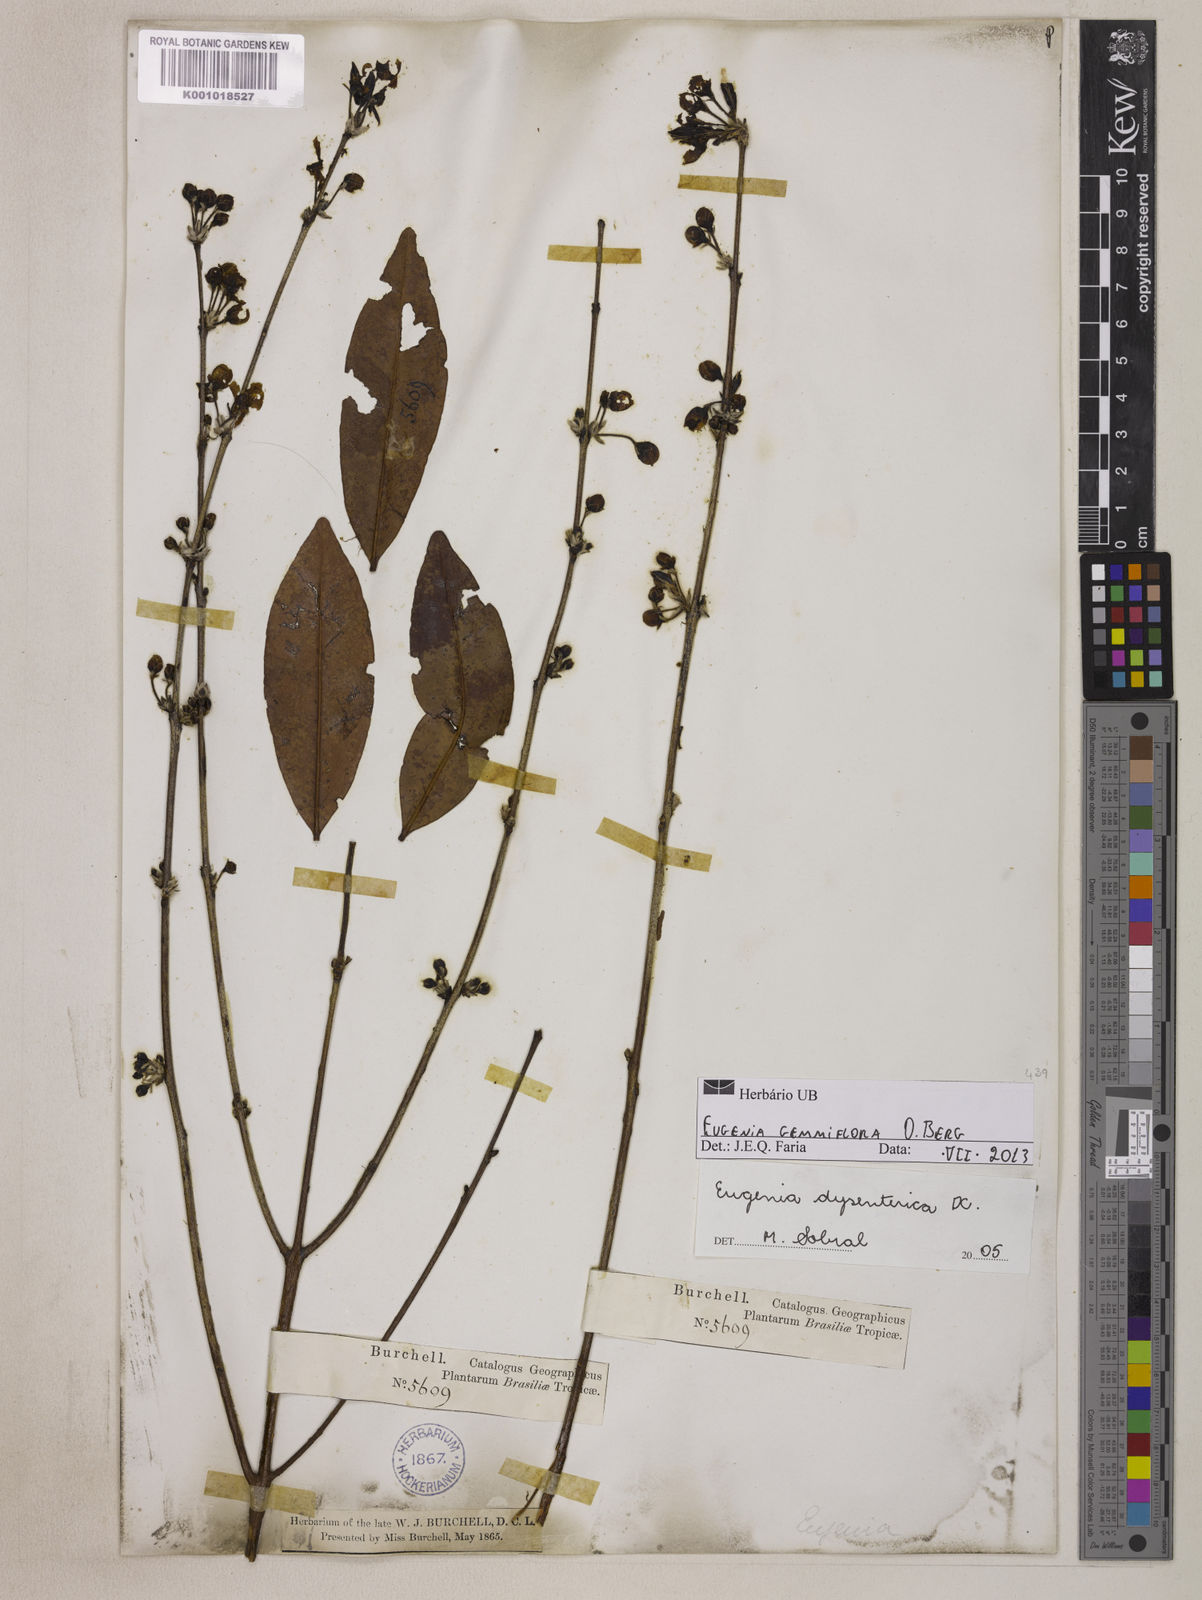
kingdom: Plantae
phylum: Tracheophyta
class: Magnoliopsida
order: Myrtales
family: Myrtaceae
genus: Eugenia
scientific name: Eugenia dysenterica
